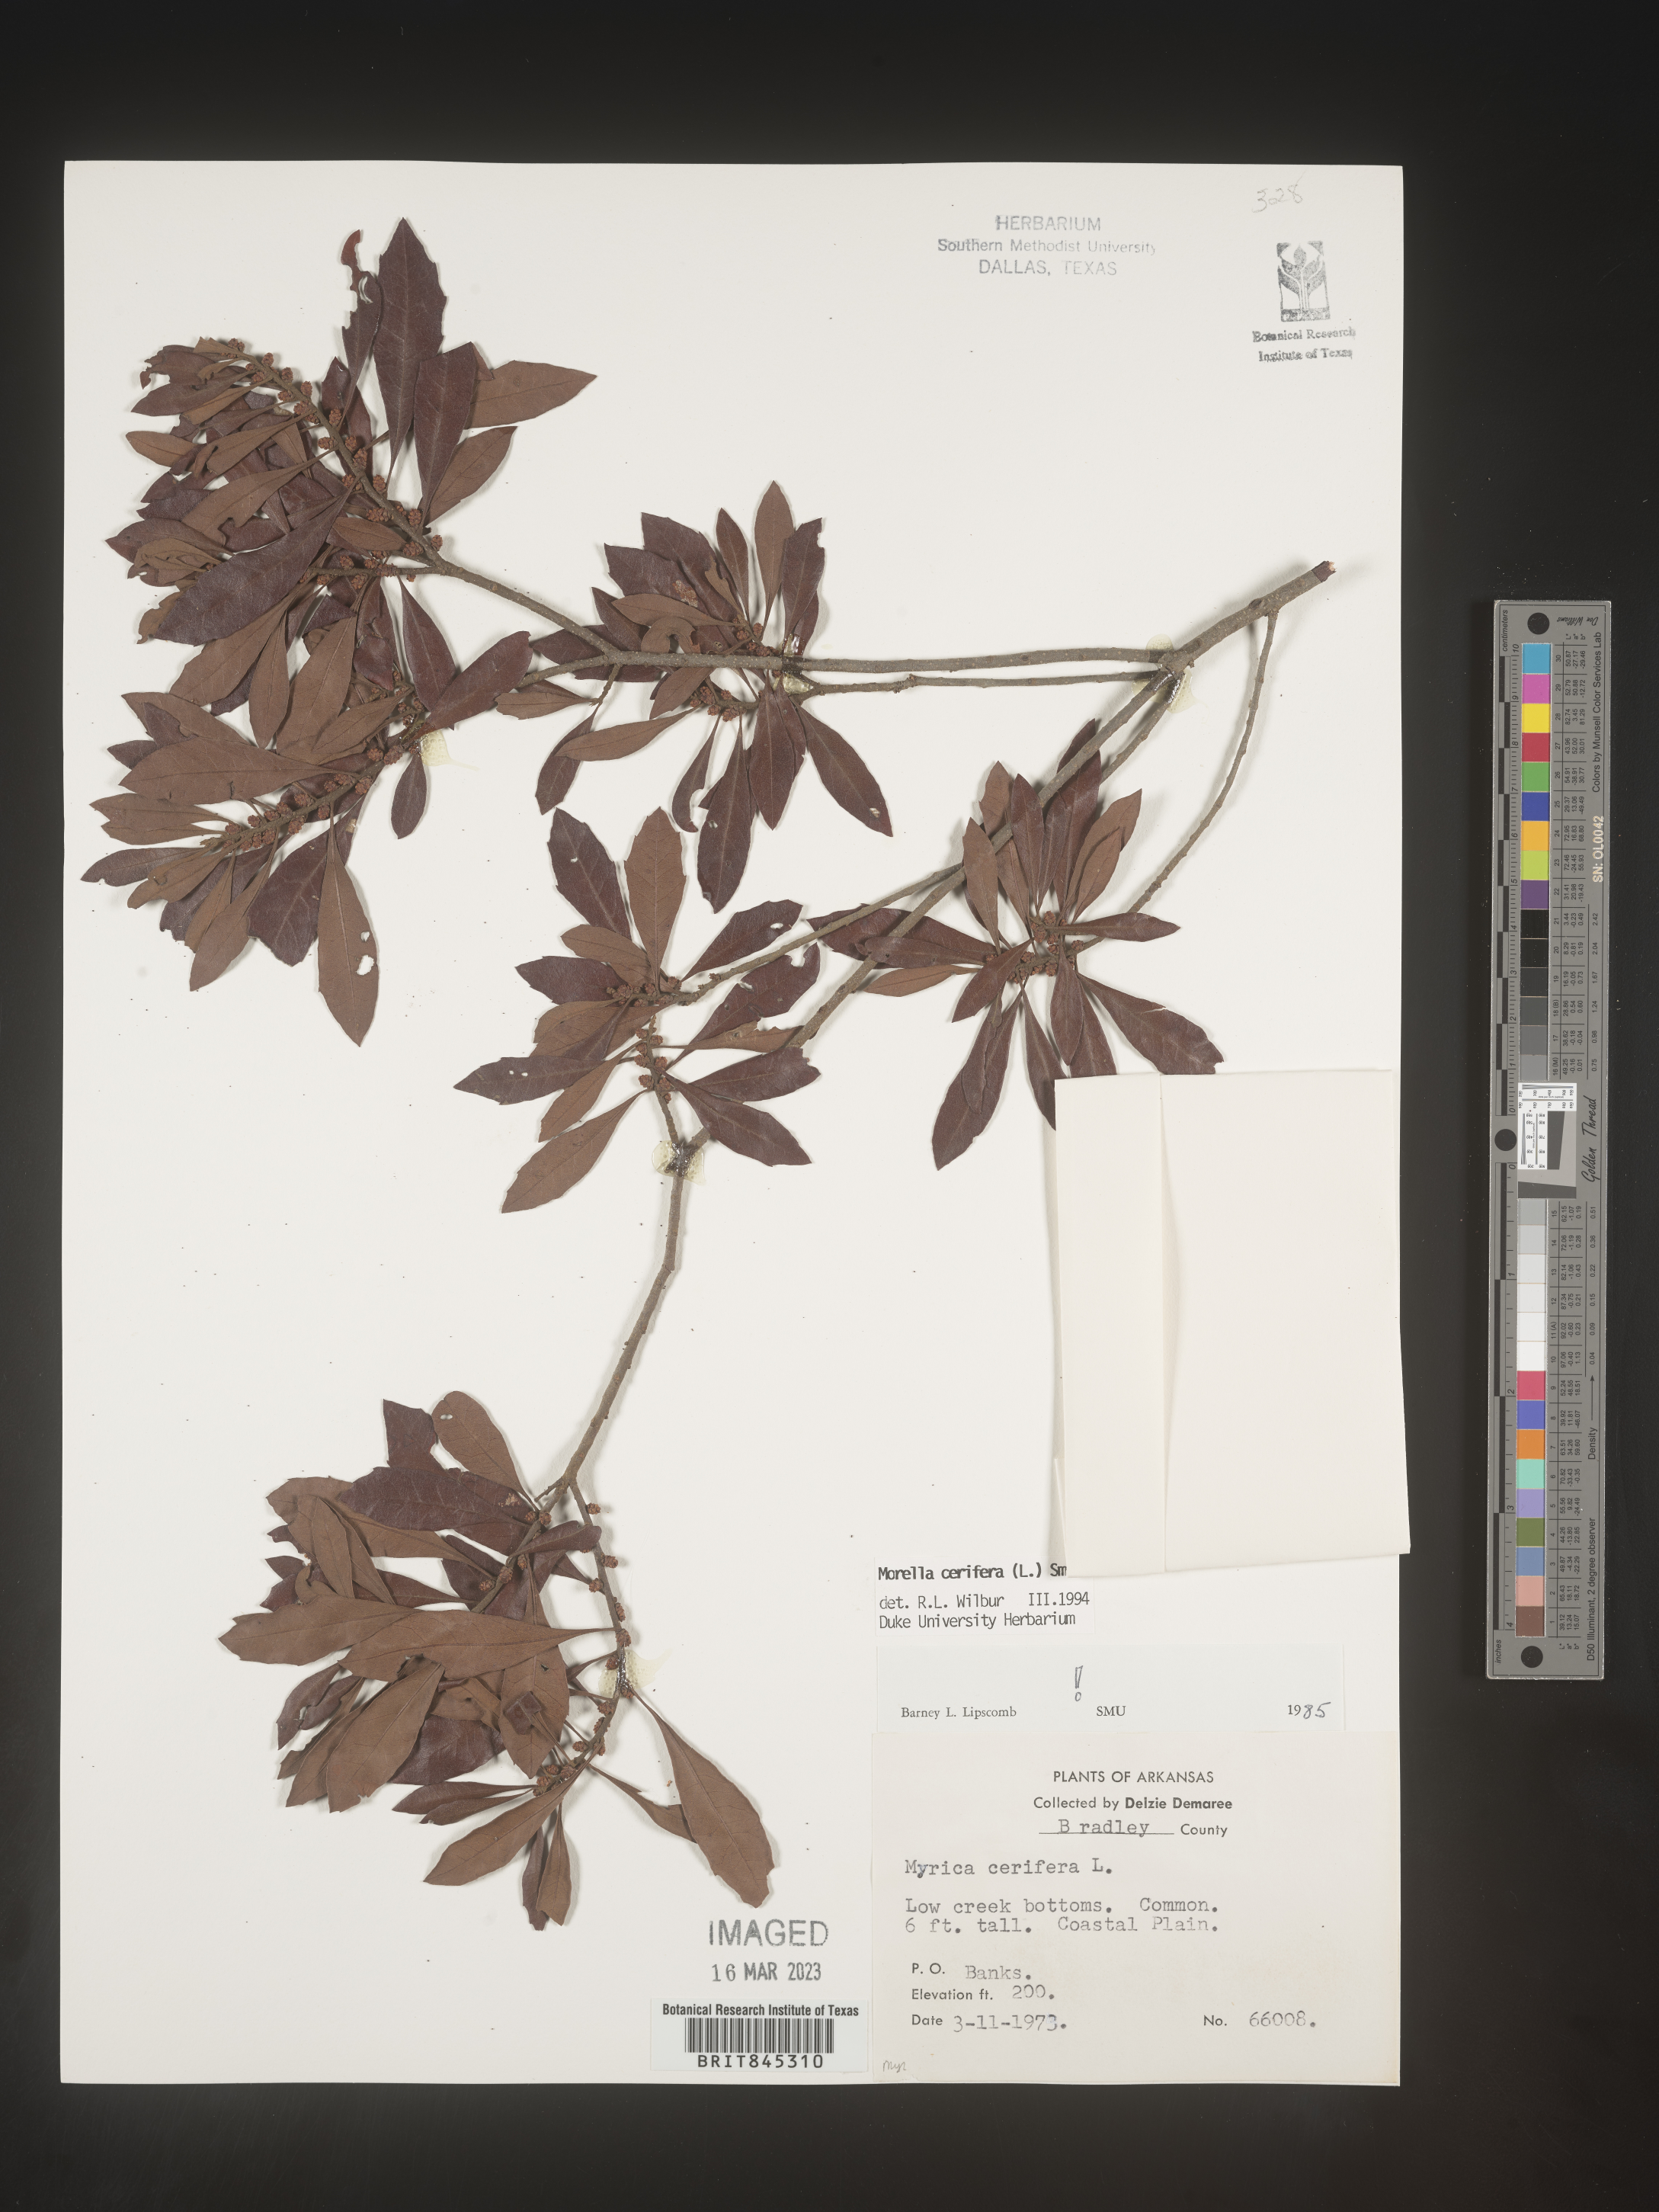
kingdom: Plantae
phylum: Tracheophyta
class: Magnoliopsida
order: Fagales
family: Myricaceae
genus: Morella
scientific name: Morella cerifera
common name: Wax myrtle
